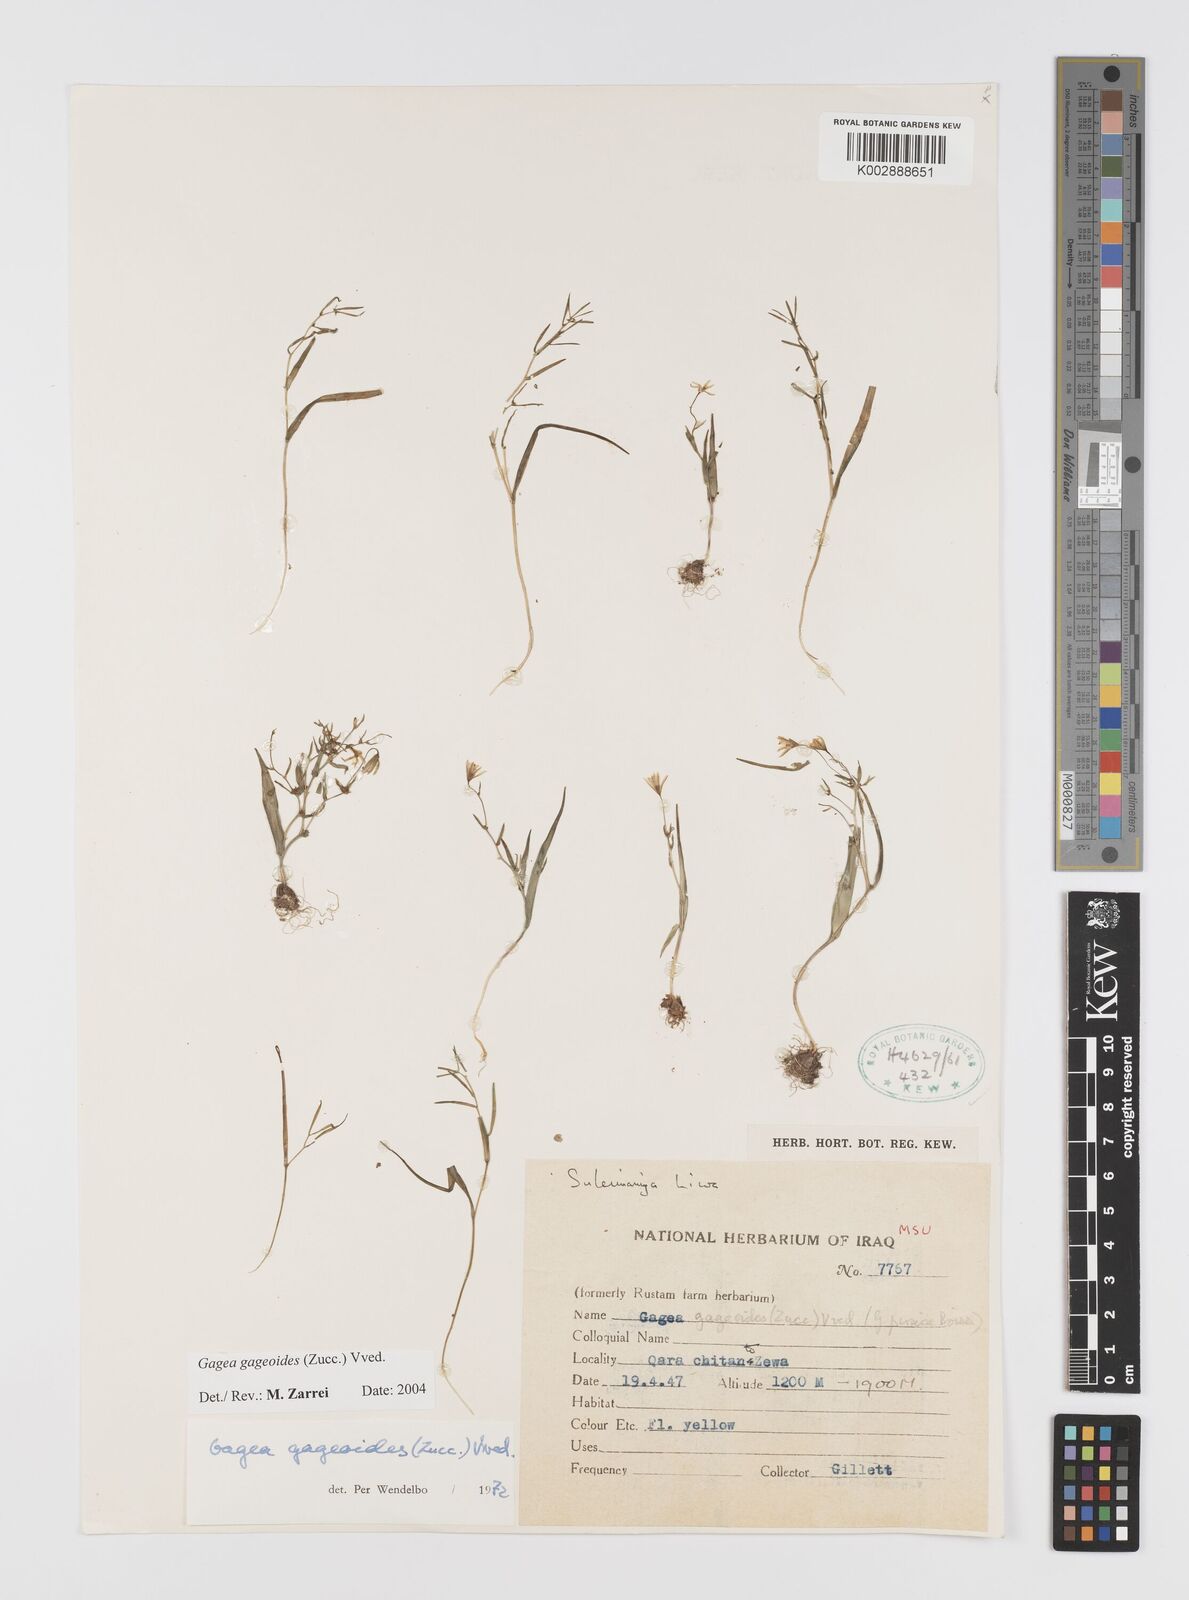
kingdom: Plantae
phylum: Tracheophyta
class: Liliopsida
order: Liliales
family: Liliaceae
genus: Gagea
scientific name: Gagea gageoides
